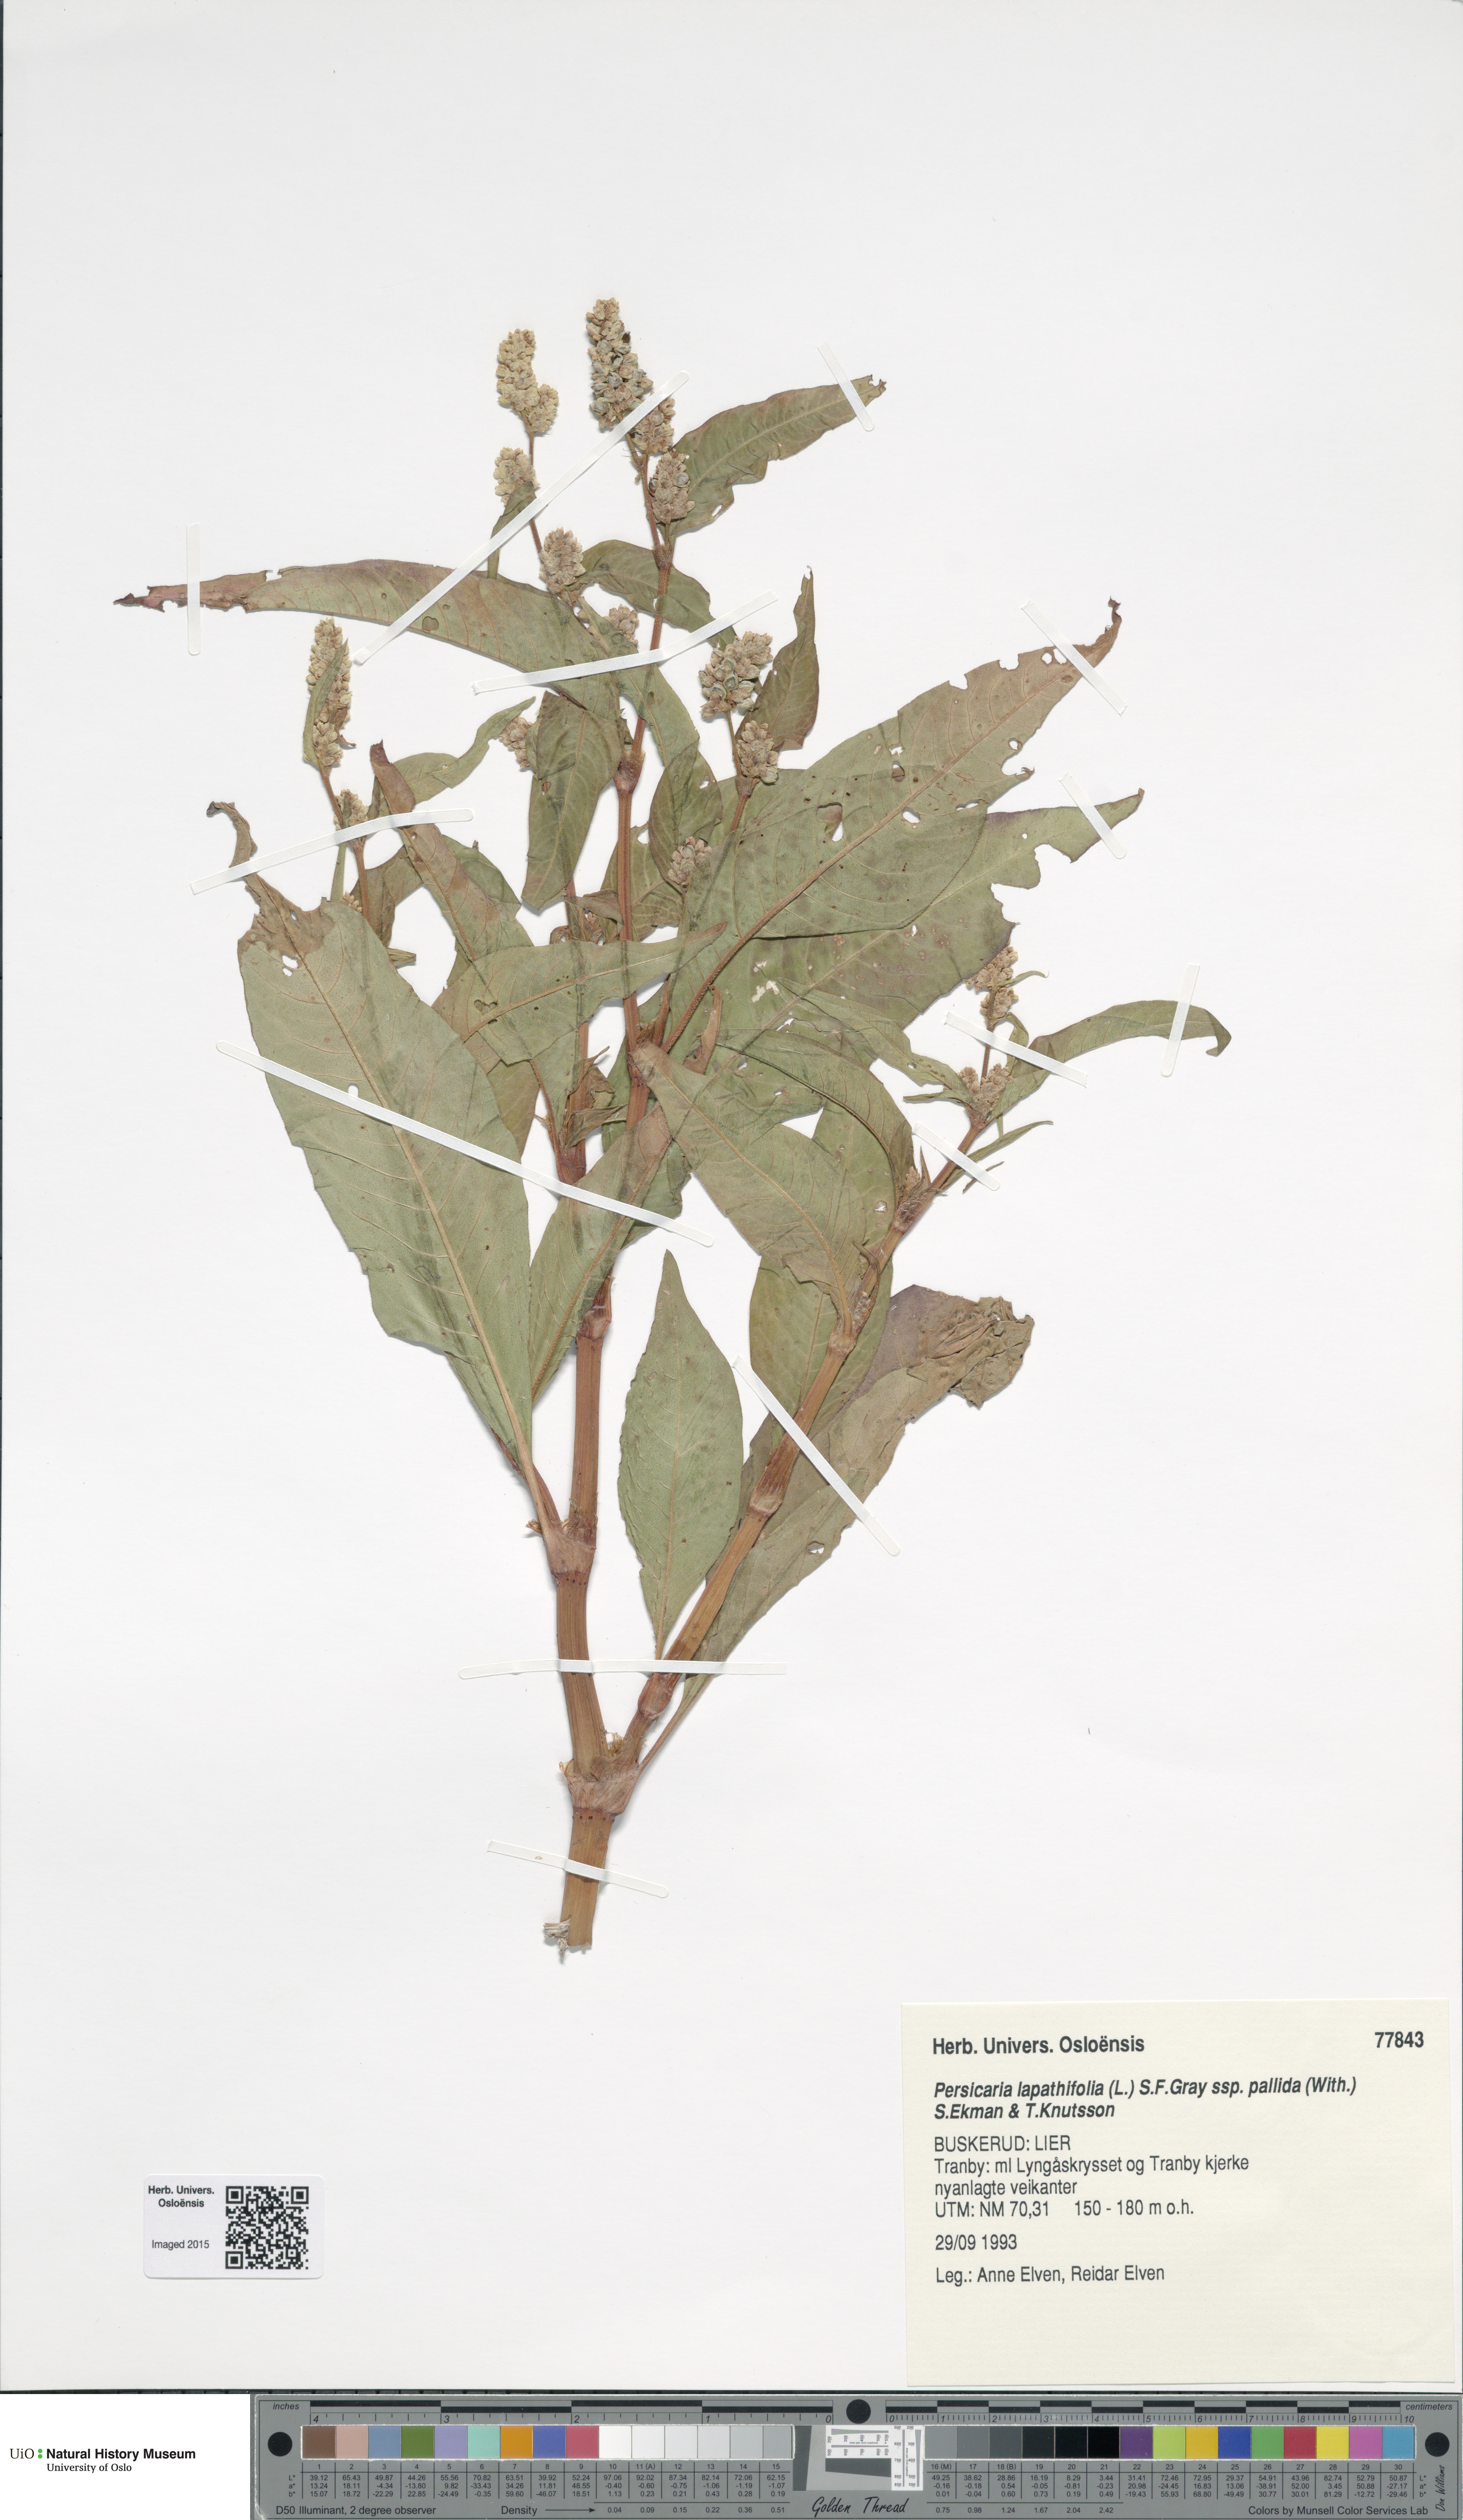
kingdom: Plantae
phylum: Tracheophyta
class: Magnoliopsida
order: Caryophyllales
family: Polygonaceae
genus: Persicaria
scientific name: Persicaria lapathifolia
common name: Curlytop knotweed
